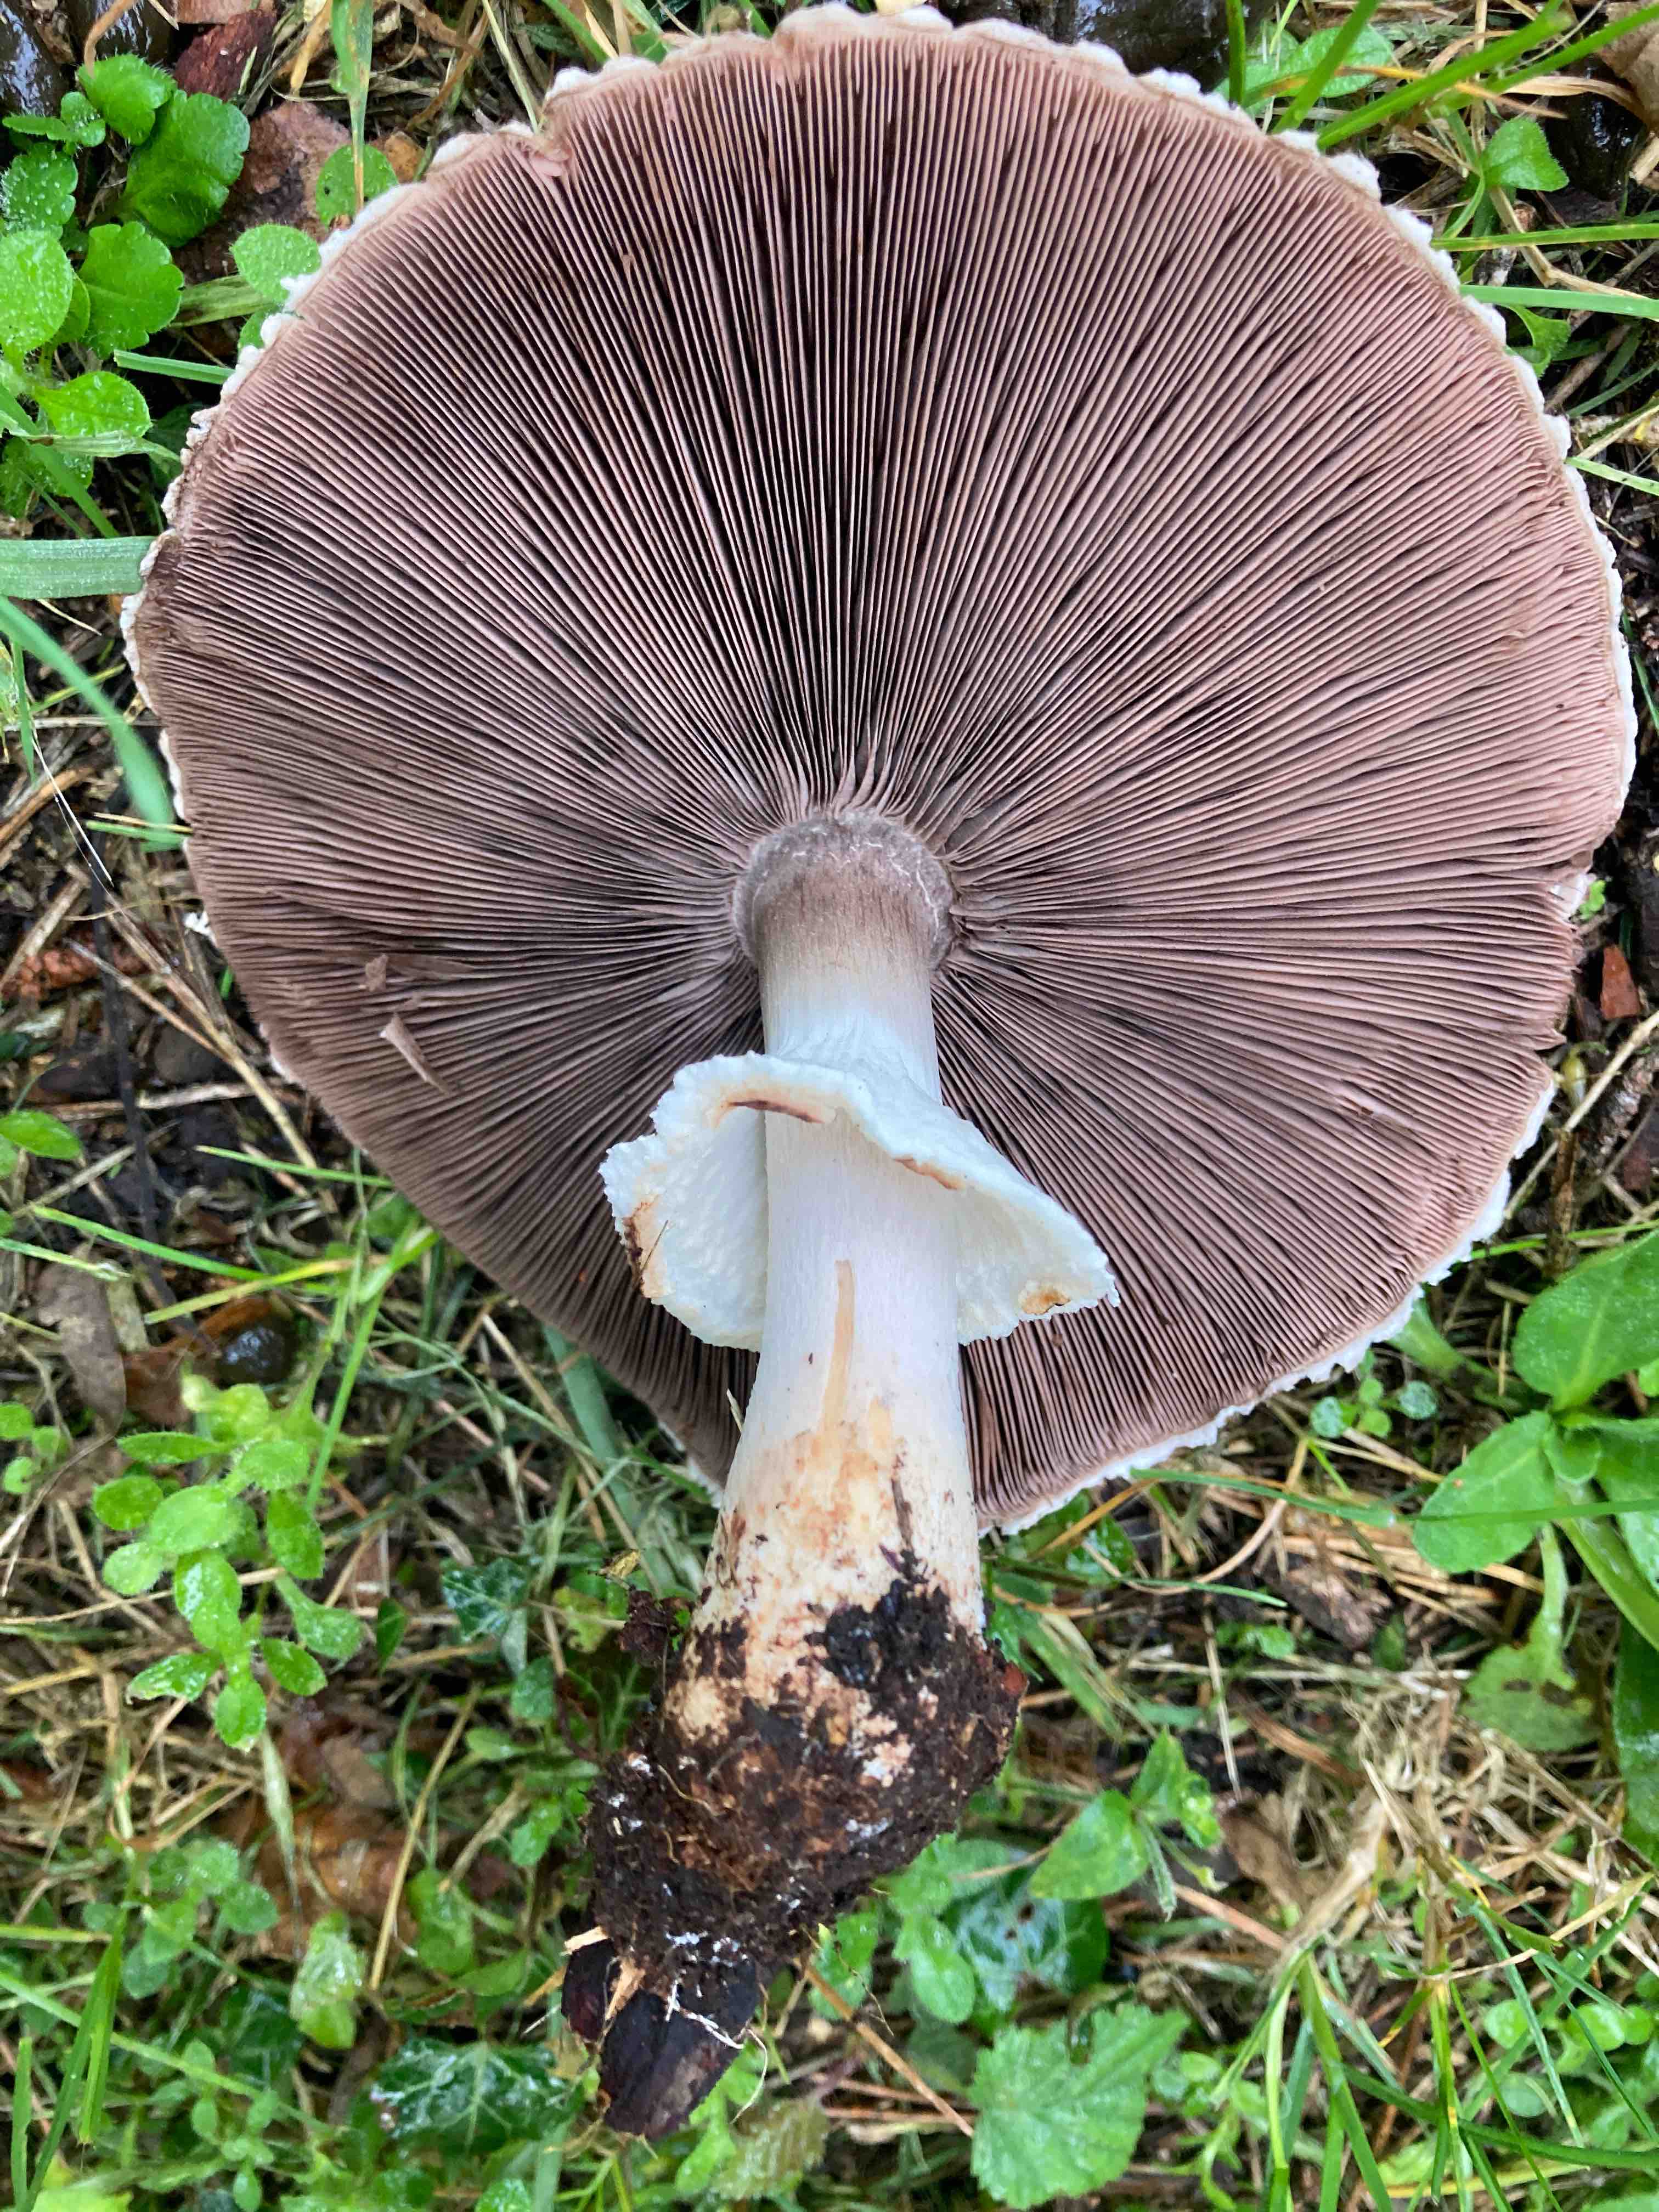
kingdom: Fungi
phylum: Basidiomycota
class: Agaricomycetes
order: Agaricales
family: Agaricaceae
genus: Agaricus
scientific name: Agaricus langei
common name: stor blod-champignon
